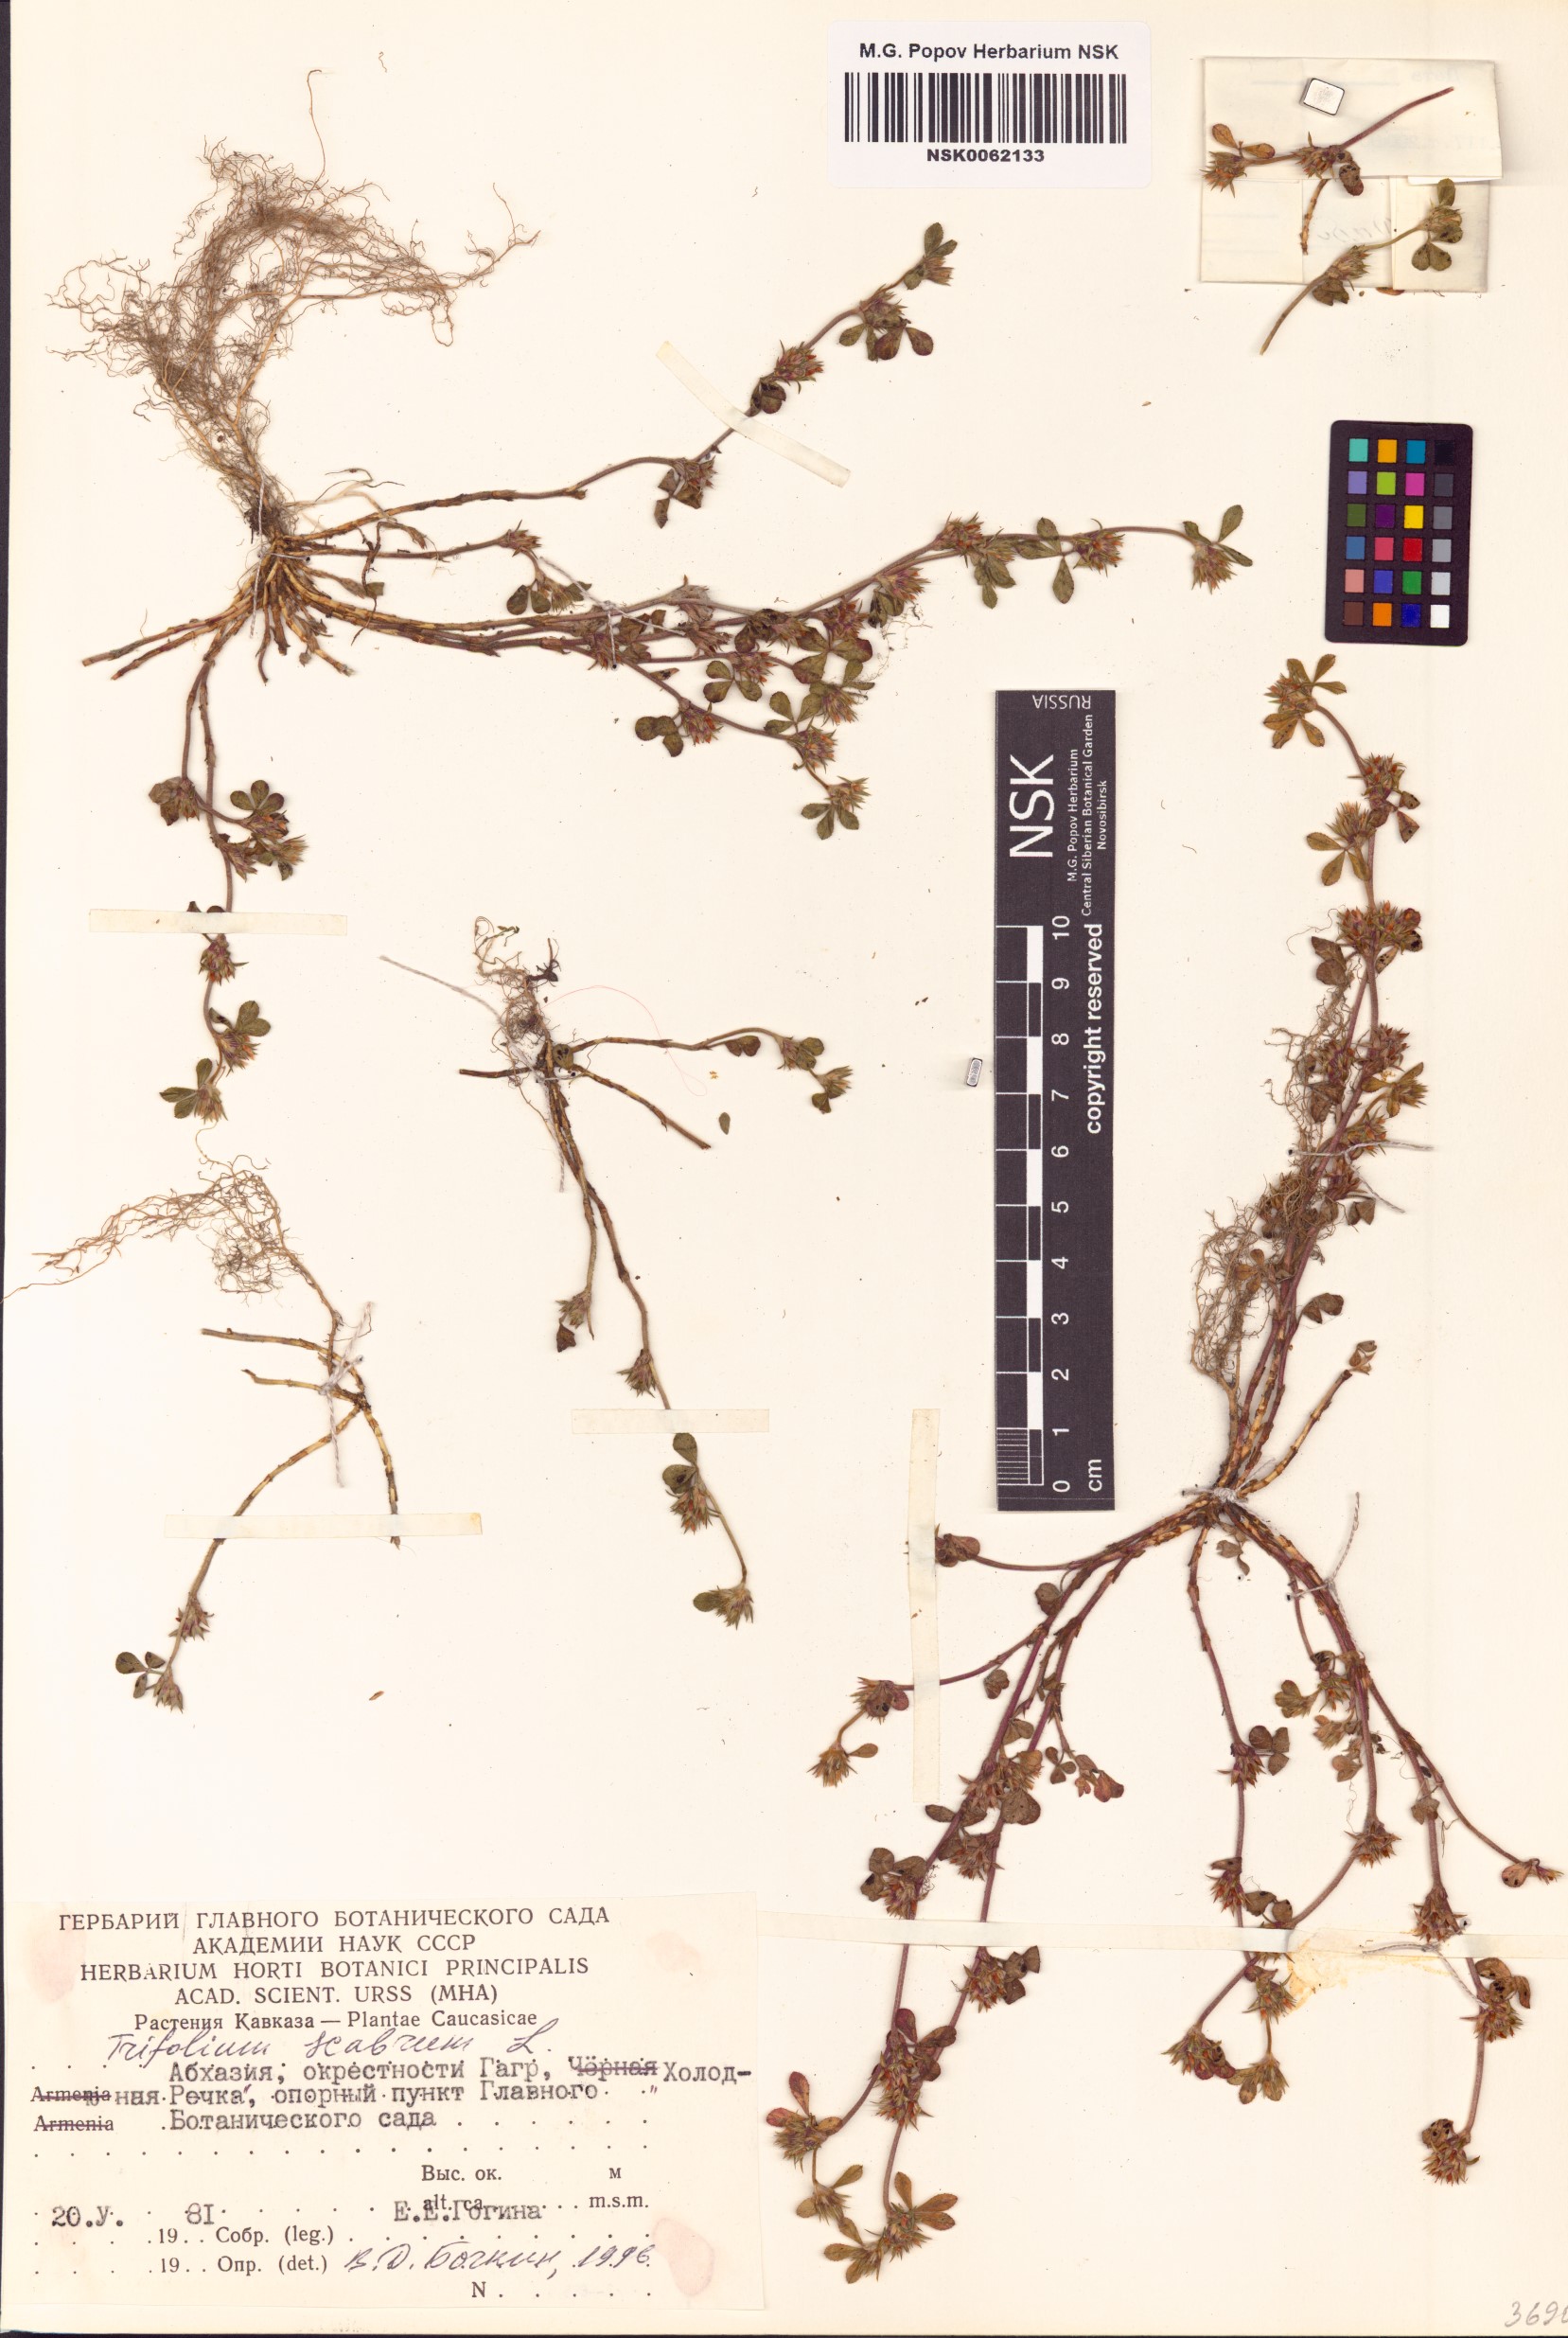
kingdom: Plantae
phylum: Tracheophyta
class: Magnoliopsida
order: Fabales
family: Fabaceae
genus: Trifolium
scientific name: Trifolium scabrum
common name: Rough clover
